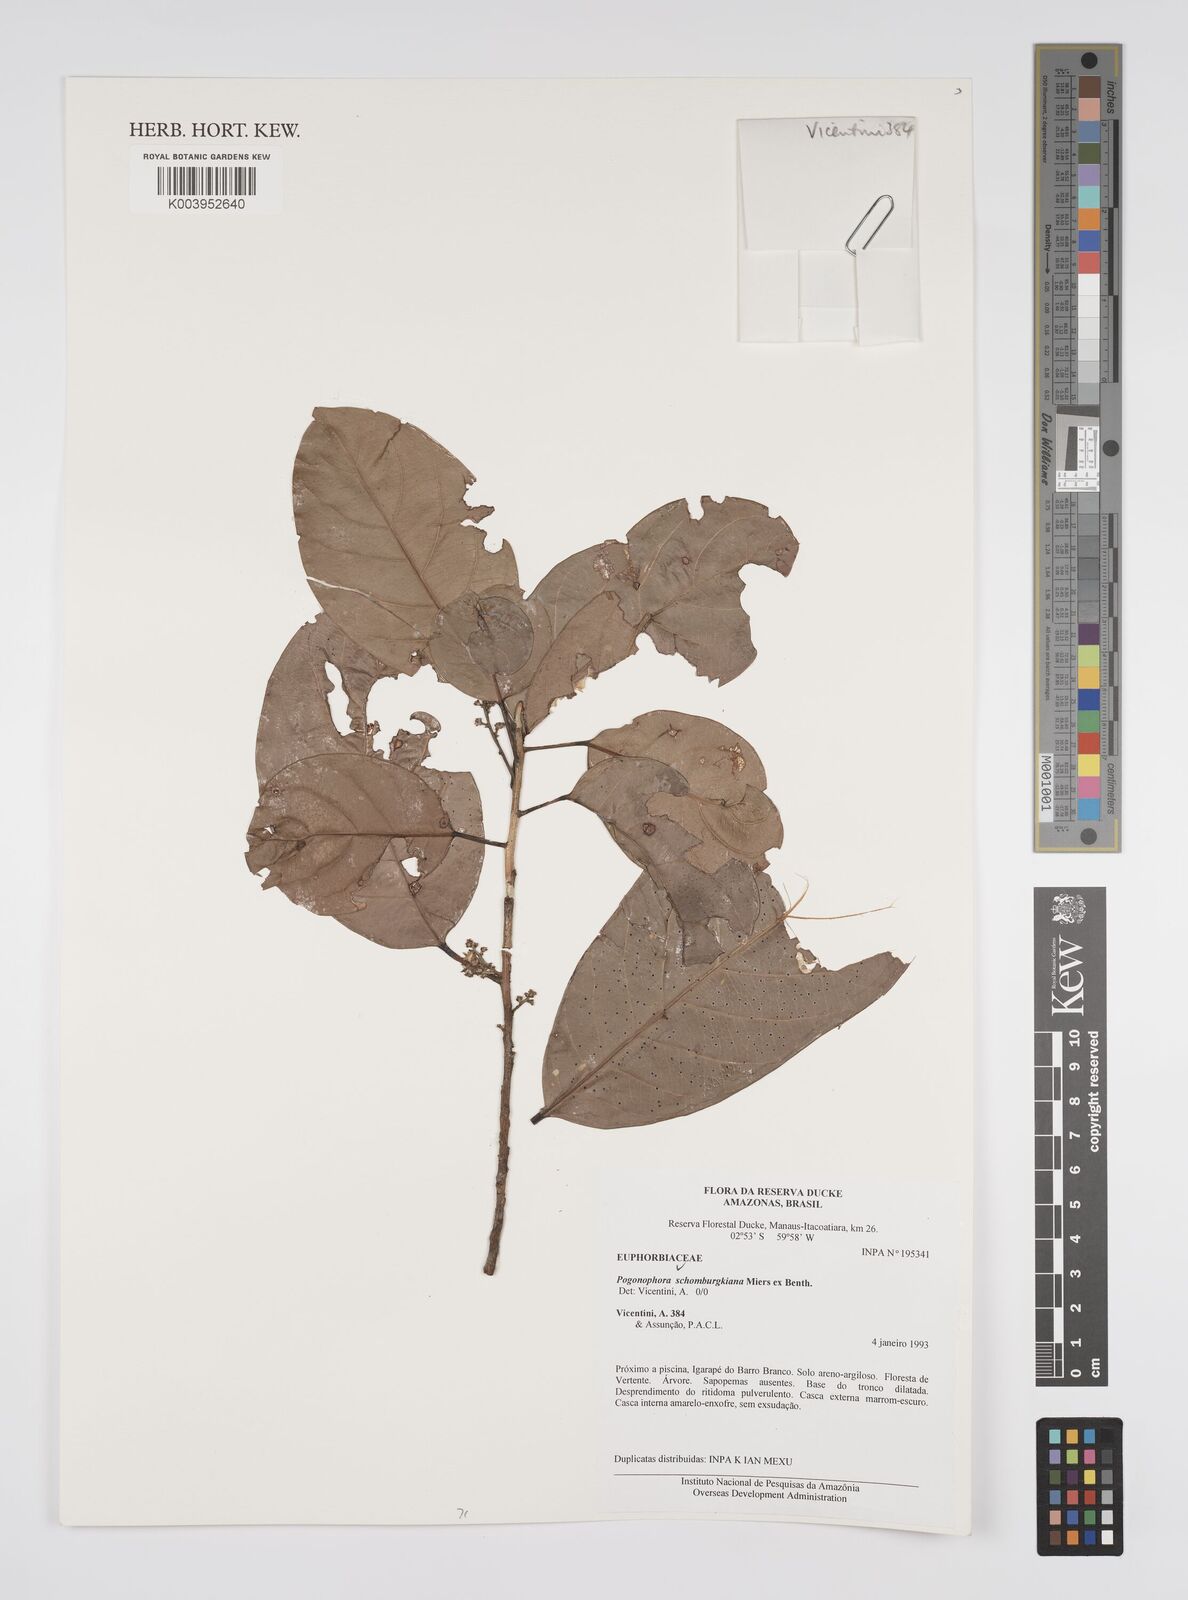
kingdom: Plantae
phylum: Tracheophyta
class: Magnoliopsida
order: Malpighiales
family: Peraceae
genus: Pogonophora
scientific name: Pogonophora schomburgkiana
